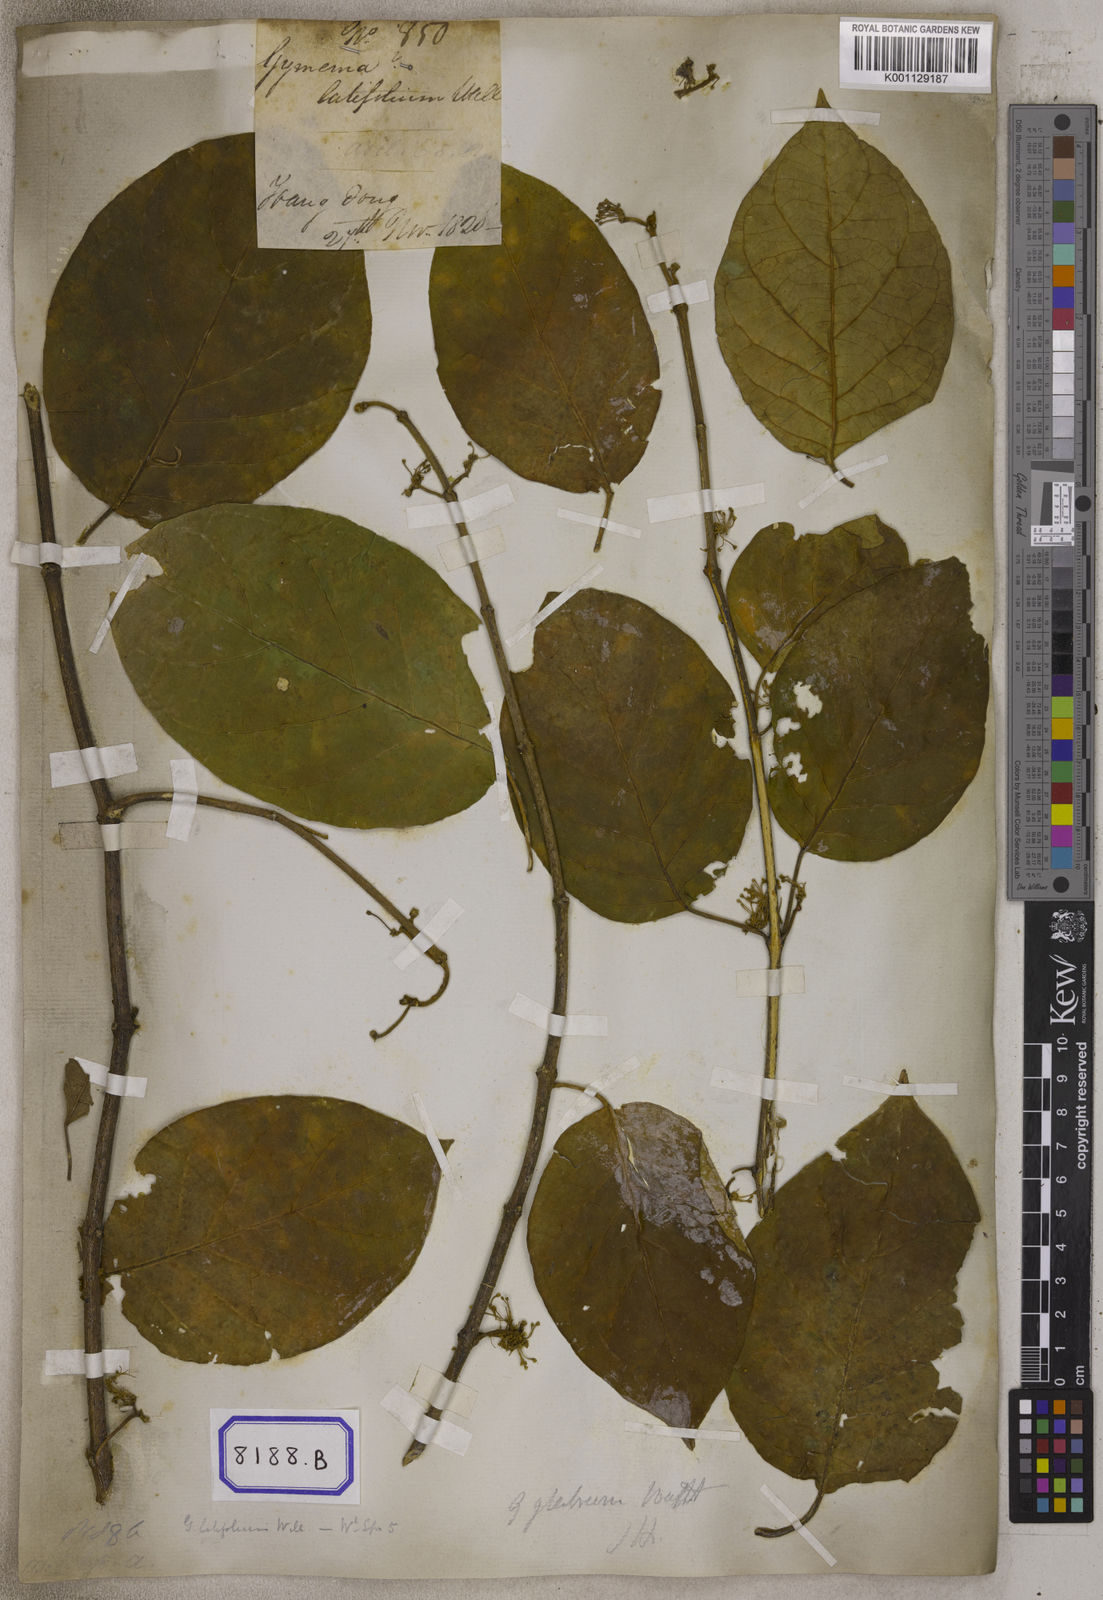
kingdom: Plantae
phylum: Tracheophyta
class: Magnoliopsida
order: Gentianales
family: Apocynaceae
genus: Gymnema
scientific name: Gymnema latifolium
